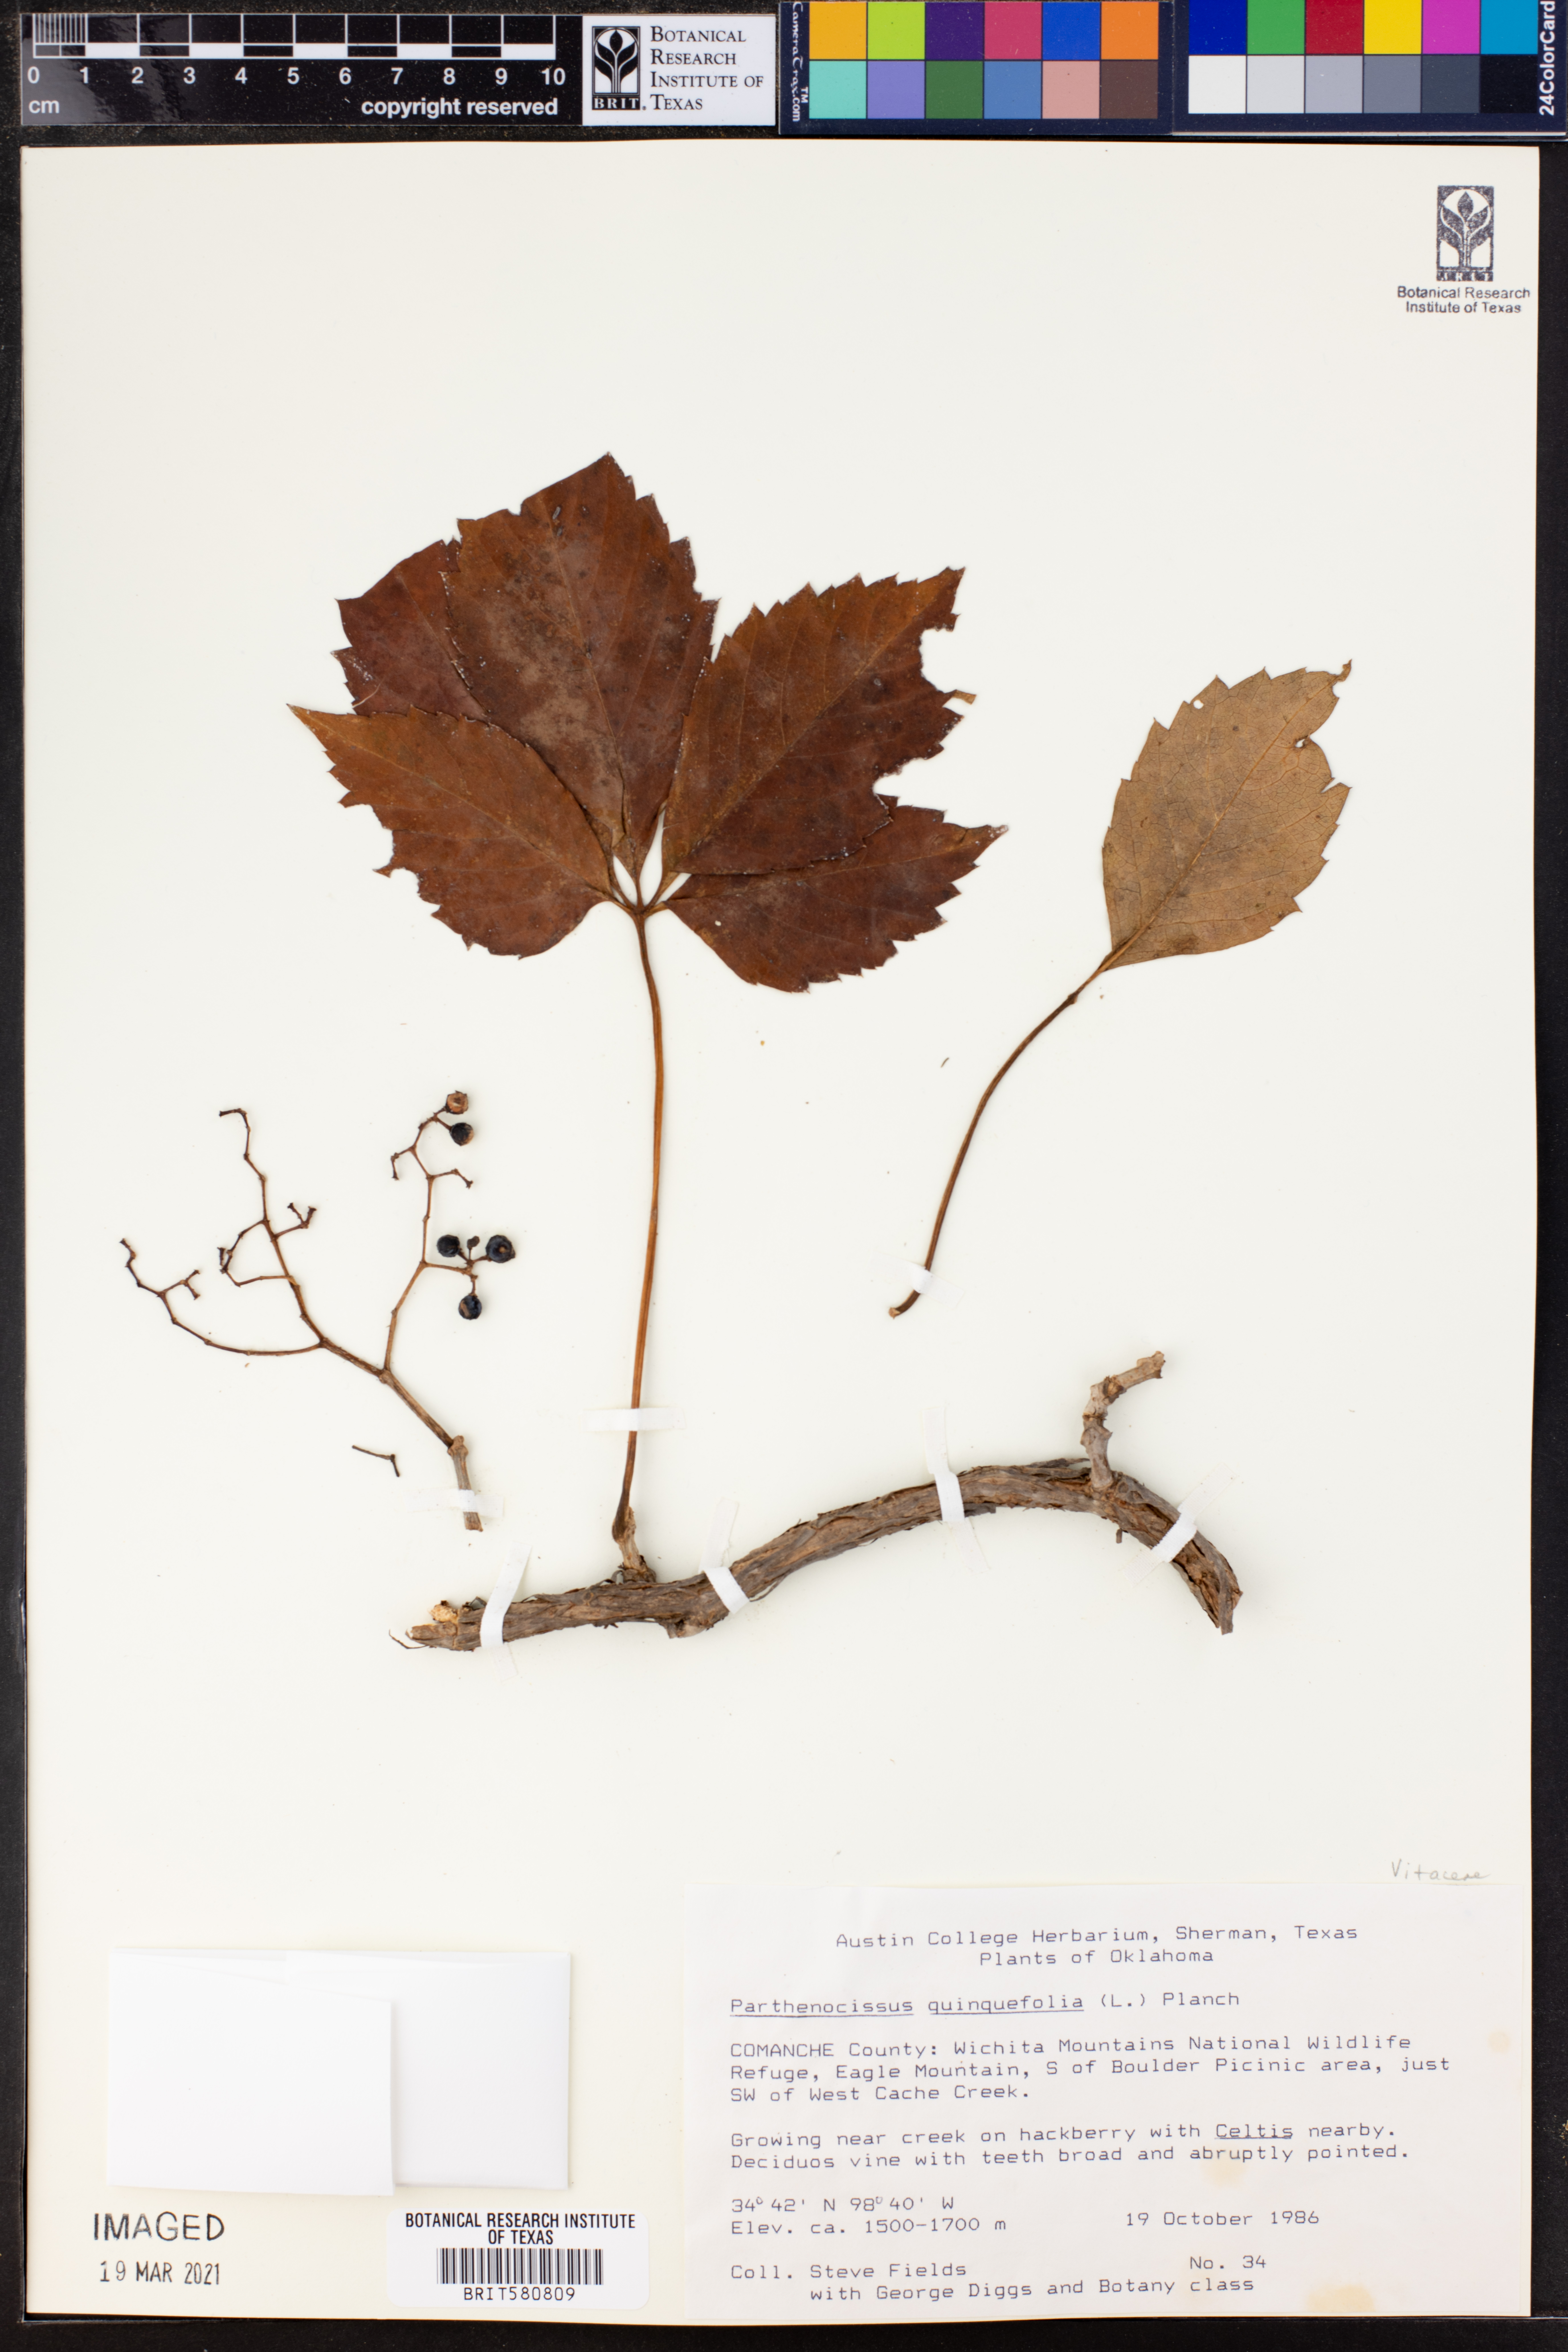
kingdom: Plantae
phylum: Tracheophyta
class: Magnoliopsida
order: Vitales
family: Vitaceae
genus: Parthenocissus
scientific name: Parthenocissus quinquefolia
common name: Virginia-creeper
